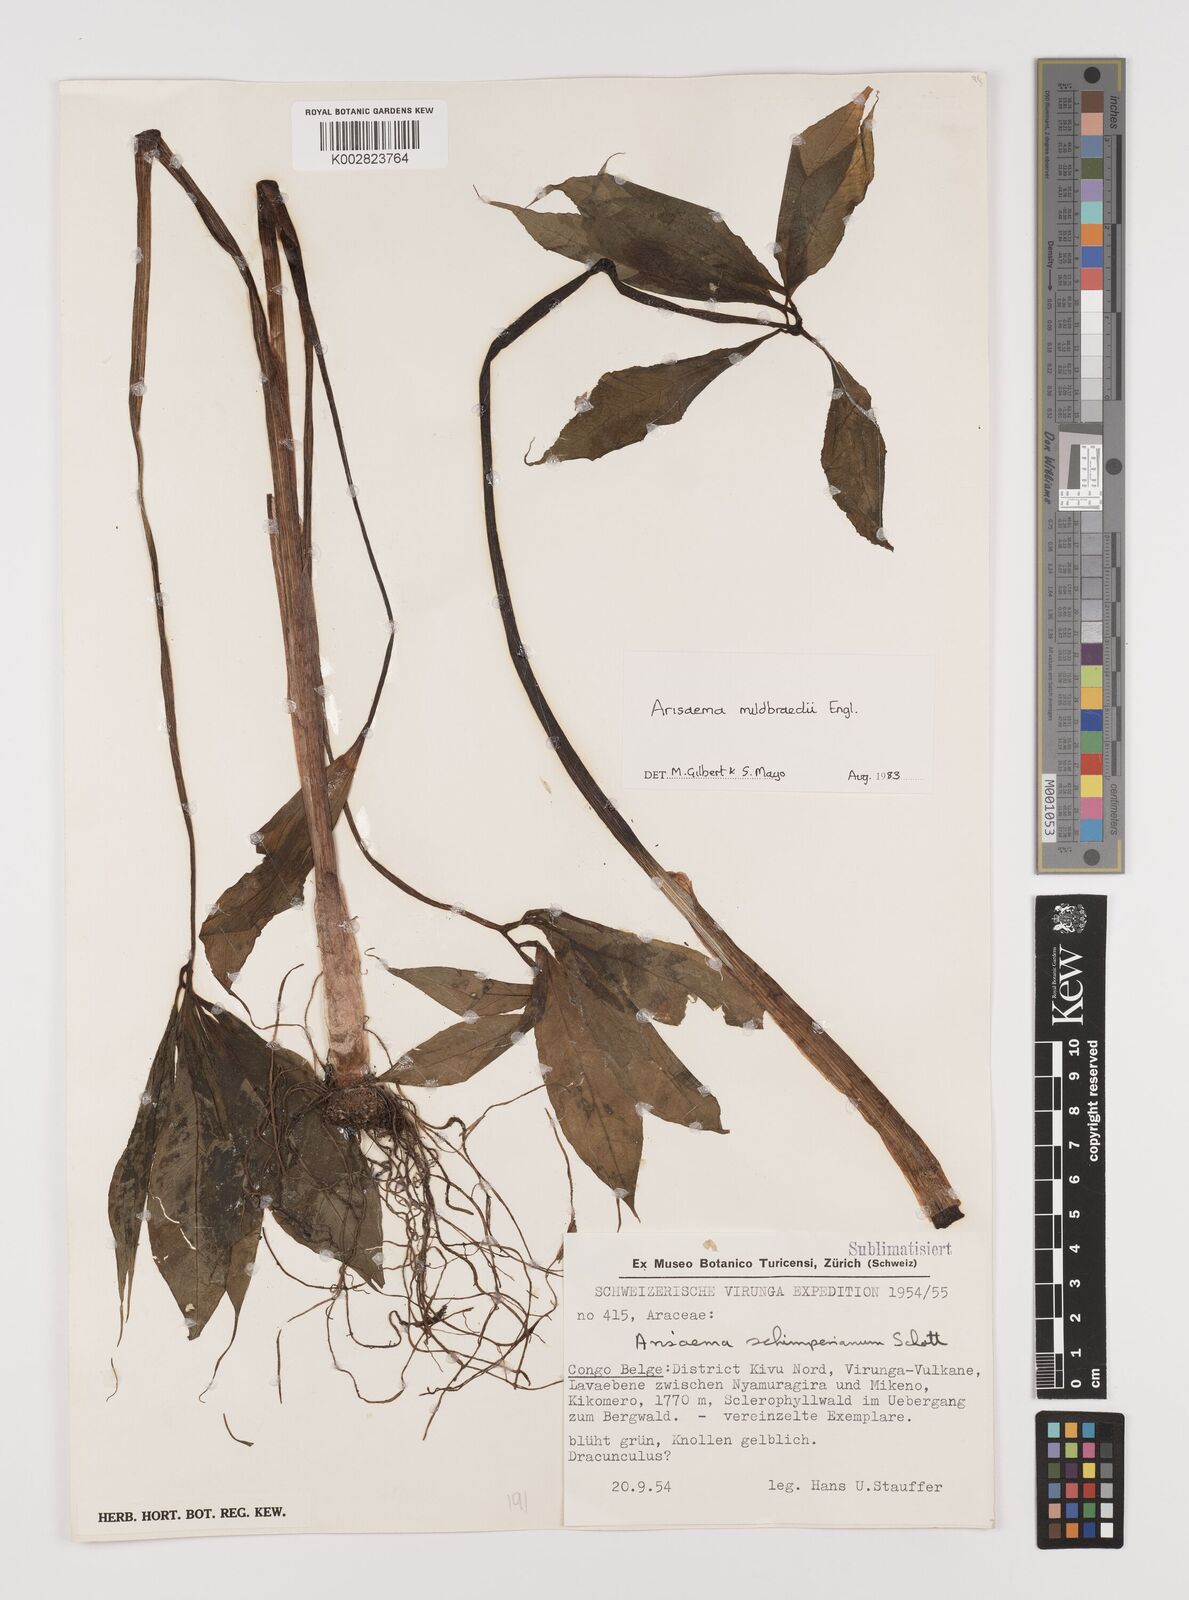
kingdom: Plantae
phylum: Tracheophyta
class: Liliopsida
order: Alismatales
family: Araceae
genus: Arisaema
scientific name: Arisaema mildbraedii
